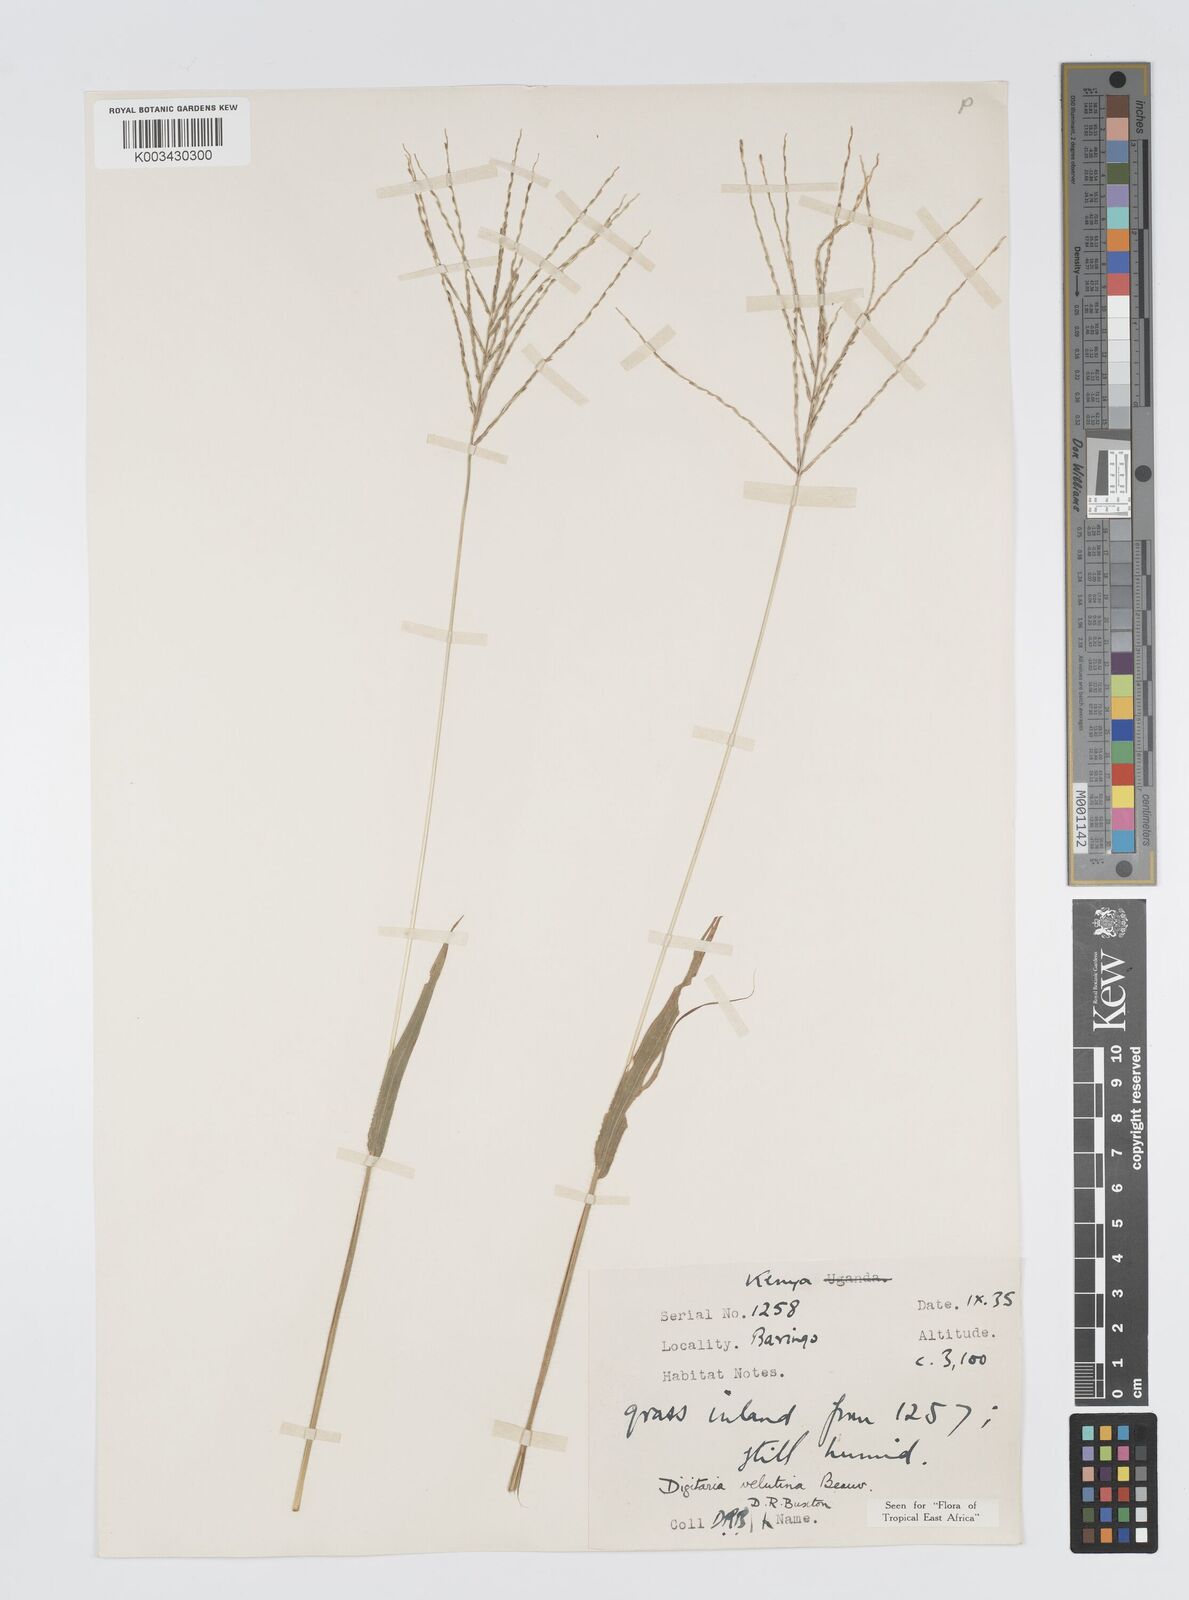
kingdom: Plantae
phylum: Tracheophyta
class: Liliopsida
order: Poales
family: Poaceae
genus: Digitaria
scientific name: Digitaria velutina
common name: Long-plume finger grass
